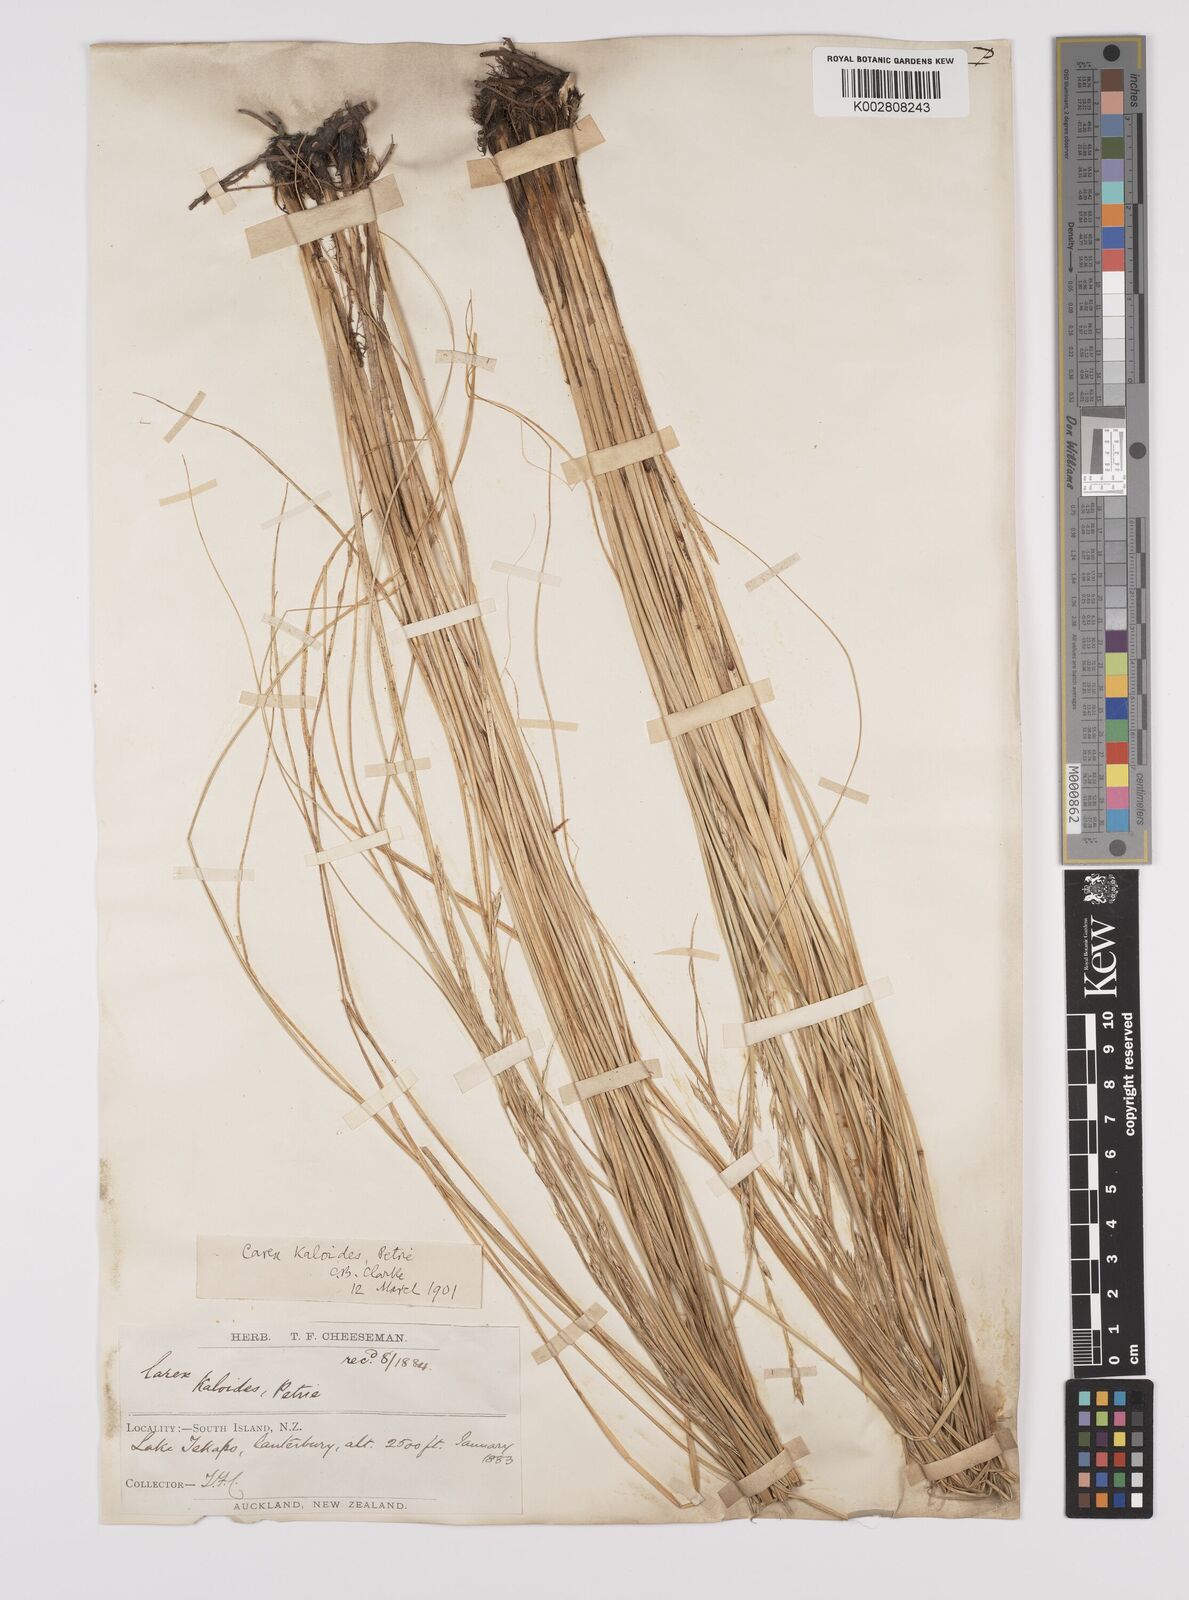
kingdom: Plantae
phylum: Tracheophyta
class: Liliopsida
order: Poales
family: Cyperaceae
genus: Carex
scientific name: Carex kaloides
